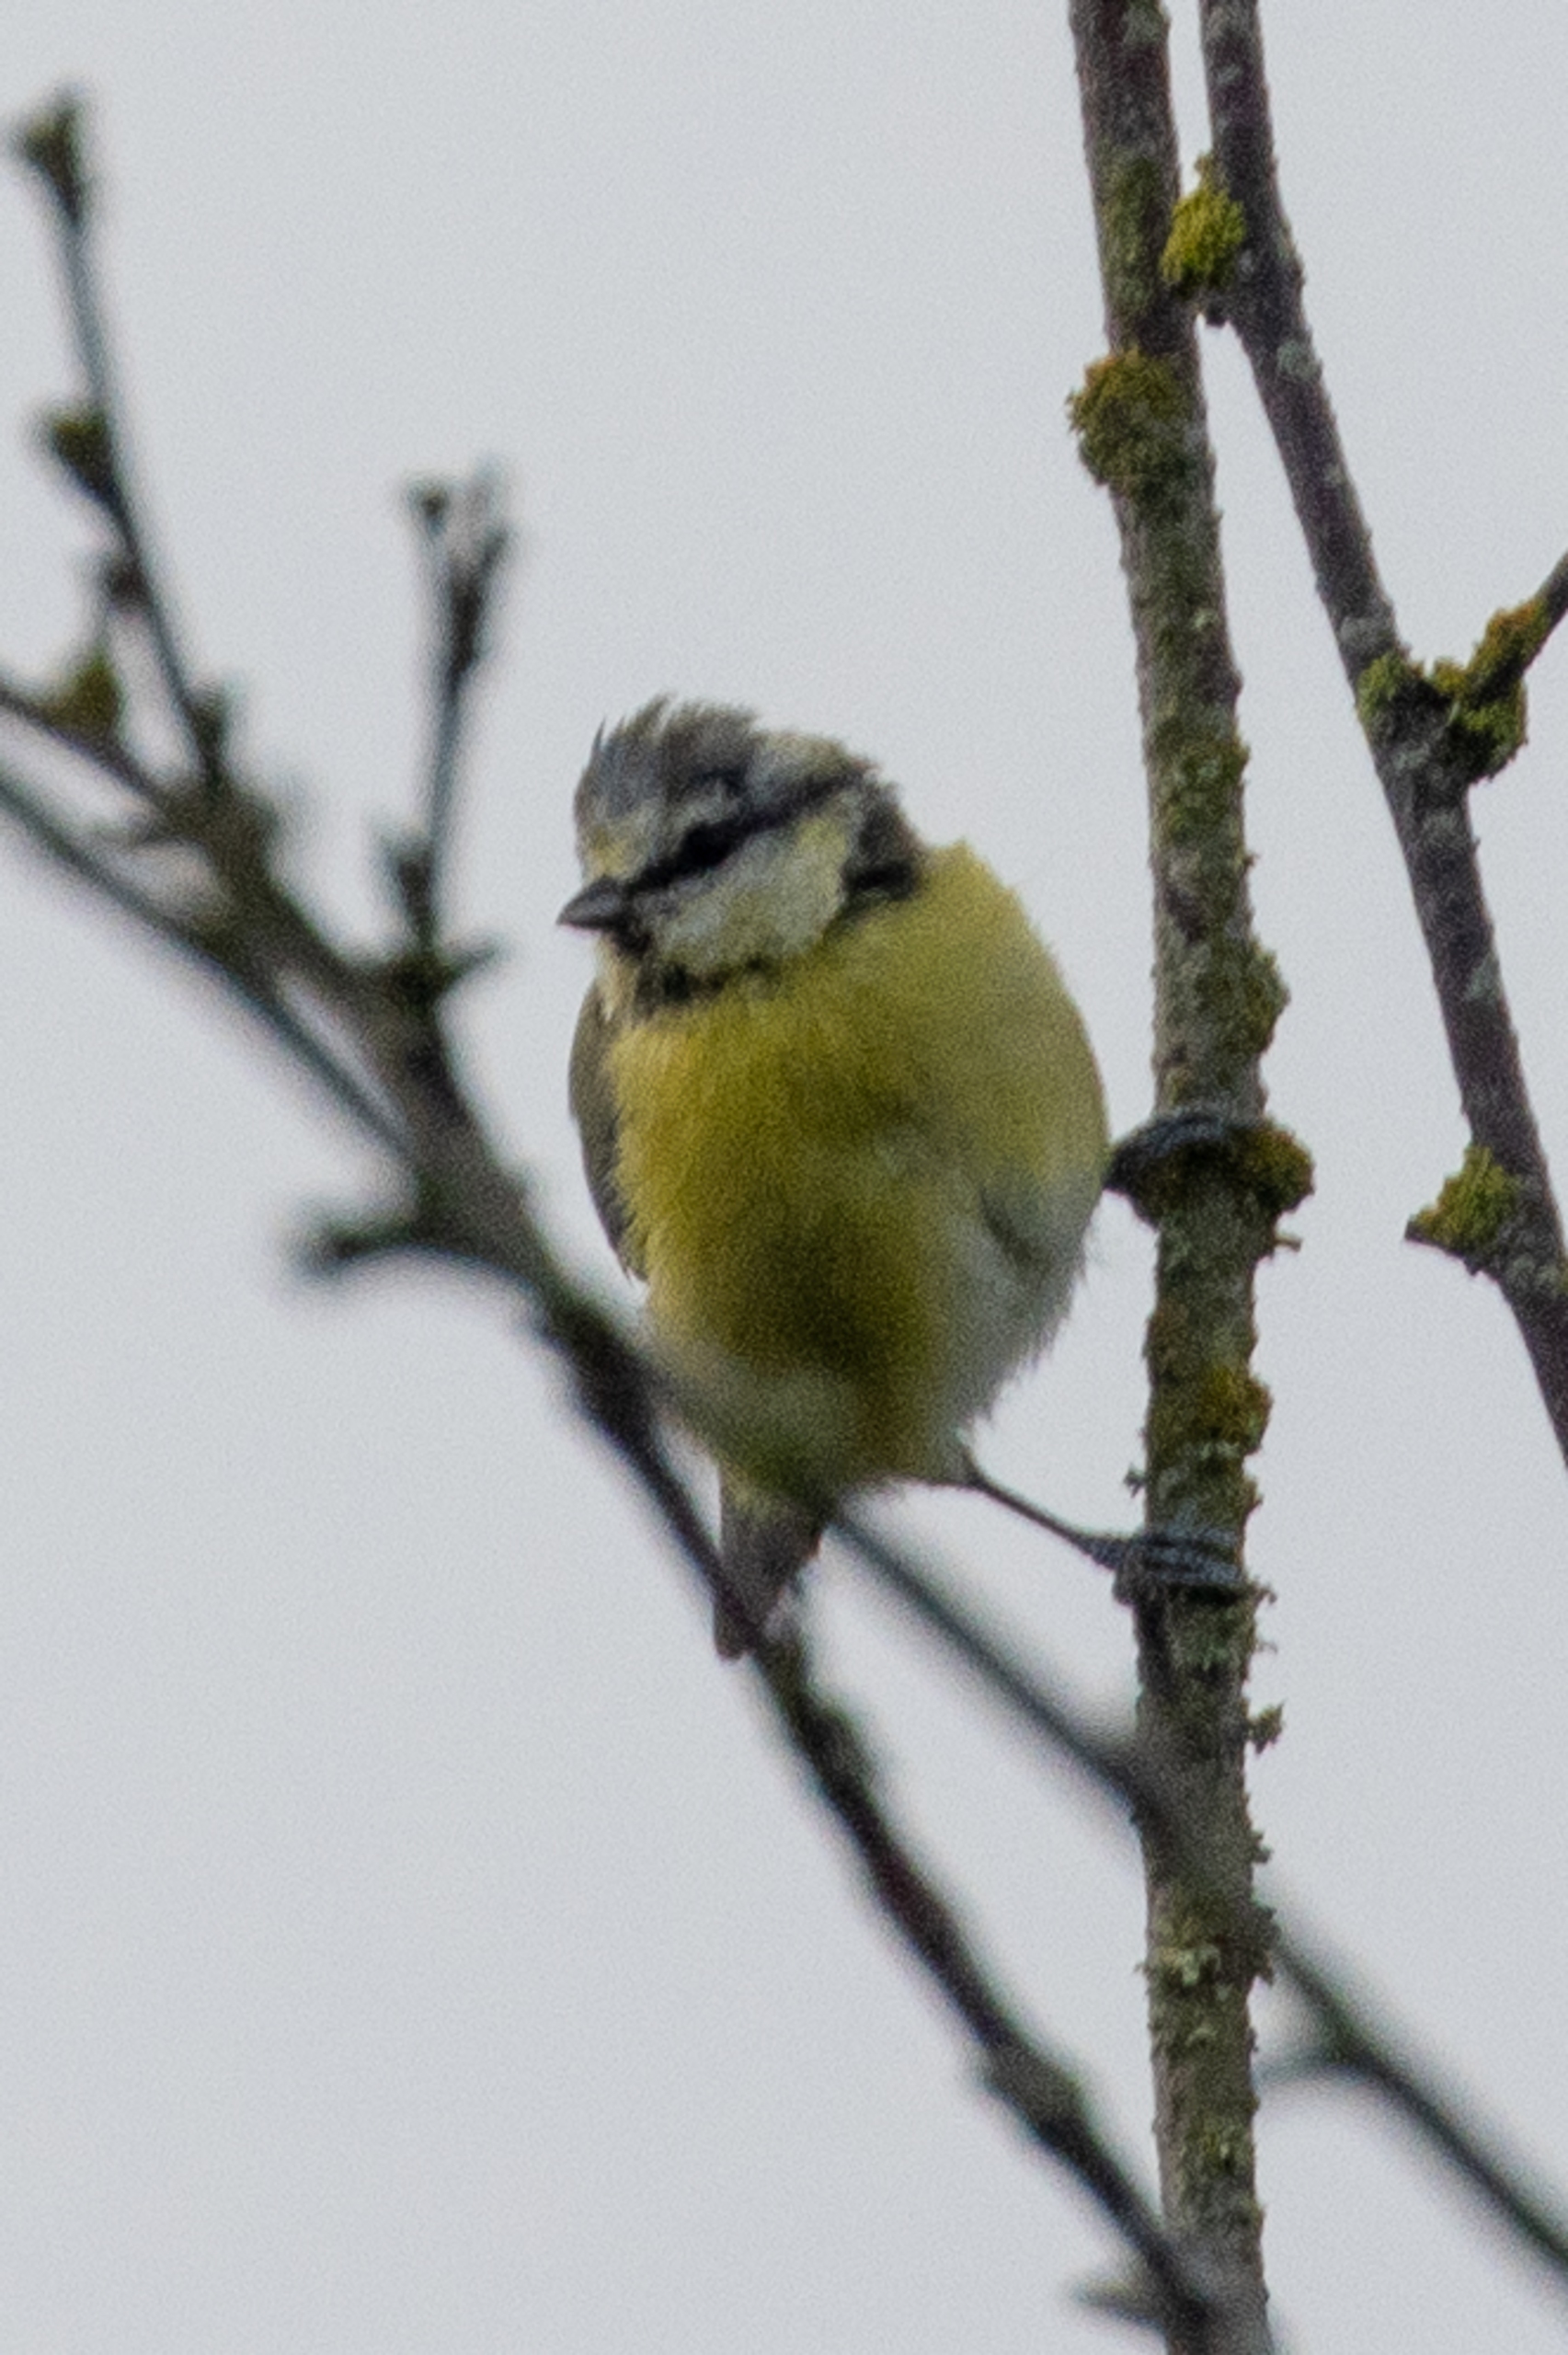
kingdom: Animalia
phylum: Chordata
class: Aves
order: Passeriformes
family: Paridae
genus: Cyanistes
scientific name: Cyanistes caeruleus
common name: Blåmejse
